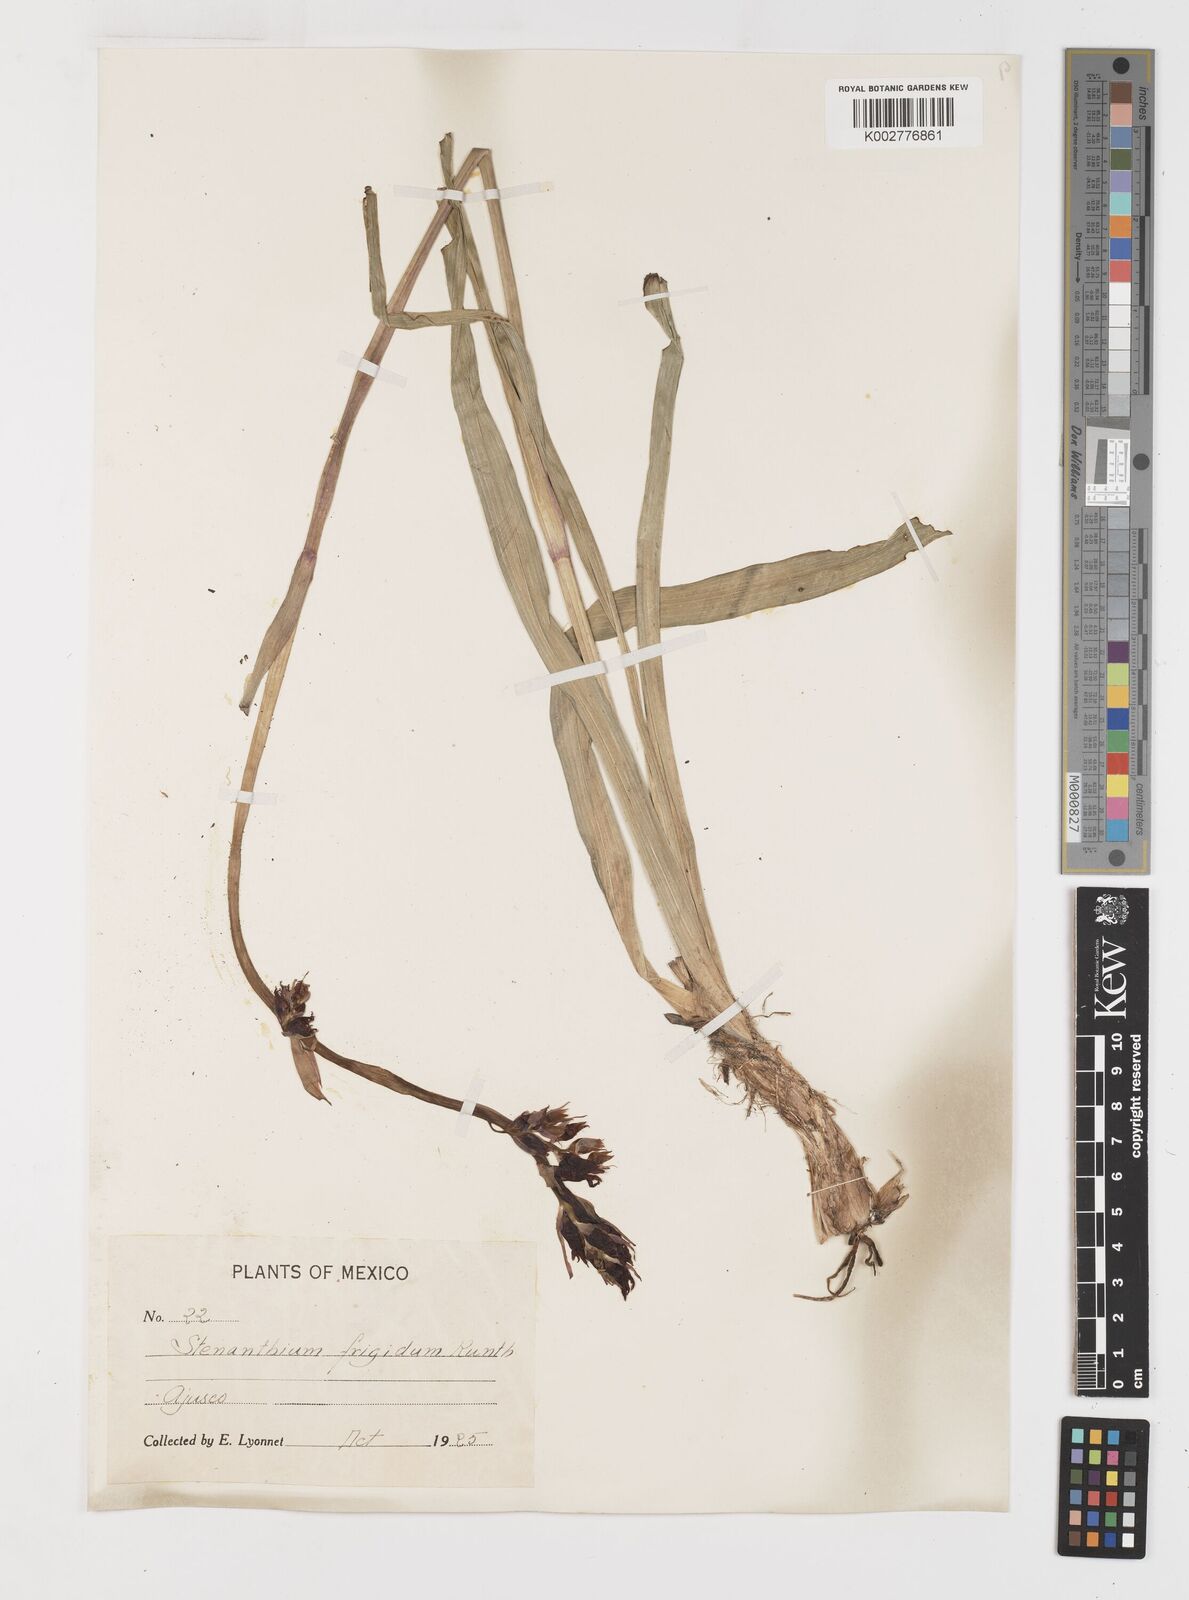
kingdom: Plantae
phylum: Tracheophyta
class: Liliopsida
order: Liliales
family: Melanthiaceae
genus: Anticlea
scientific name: Anticlea frigida
